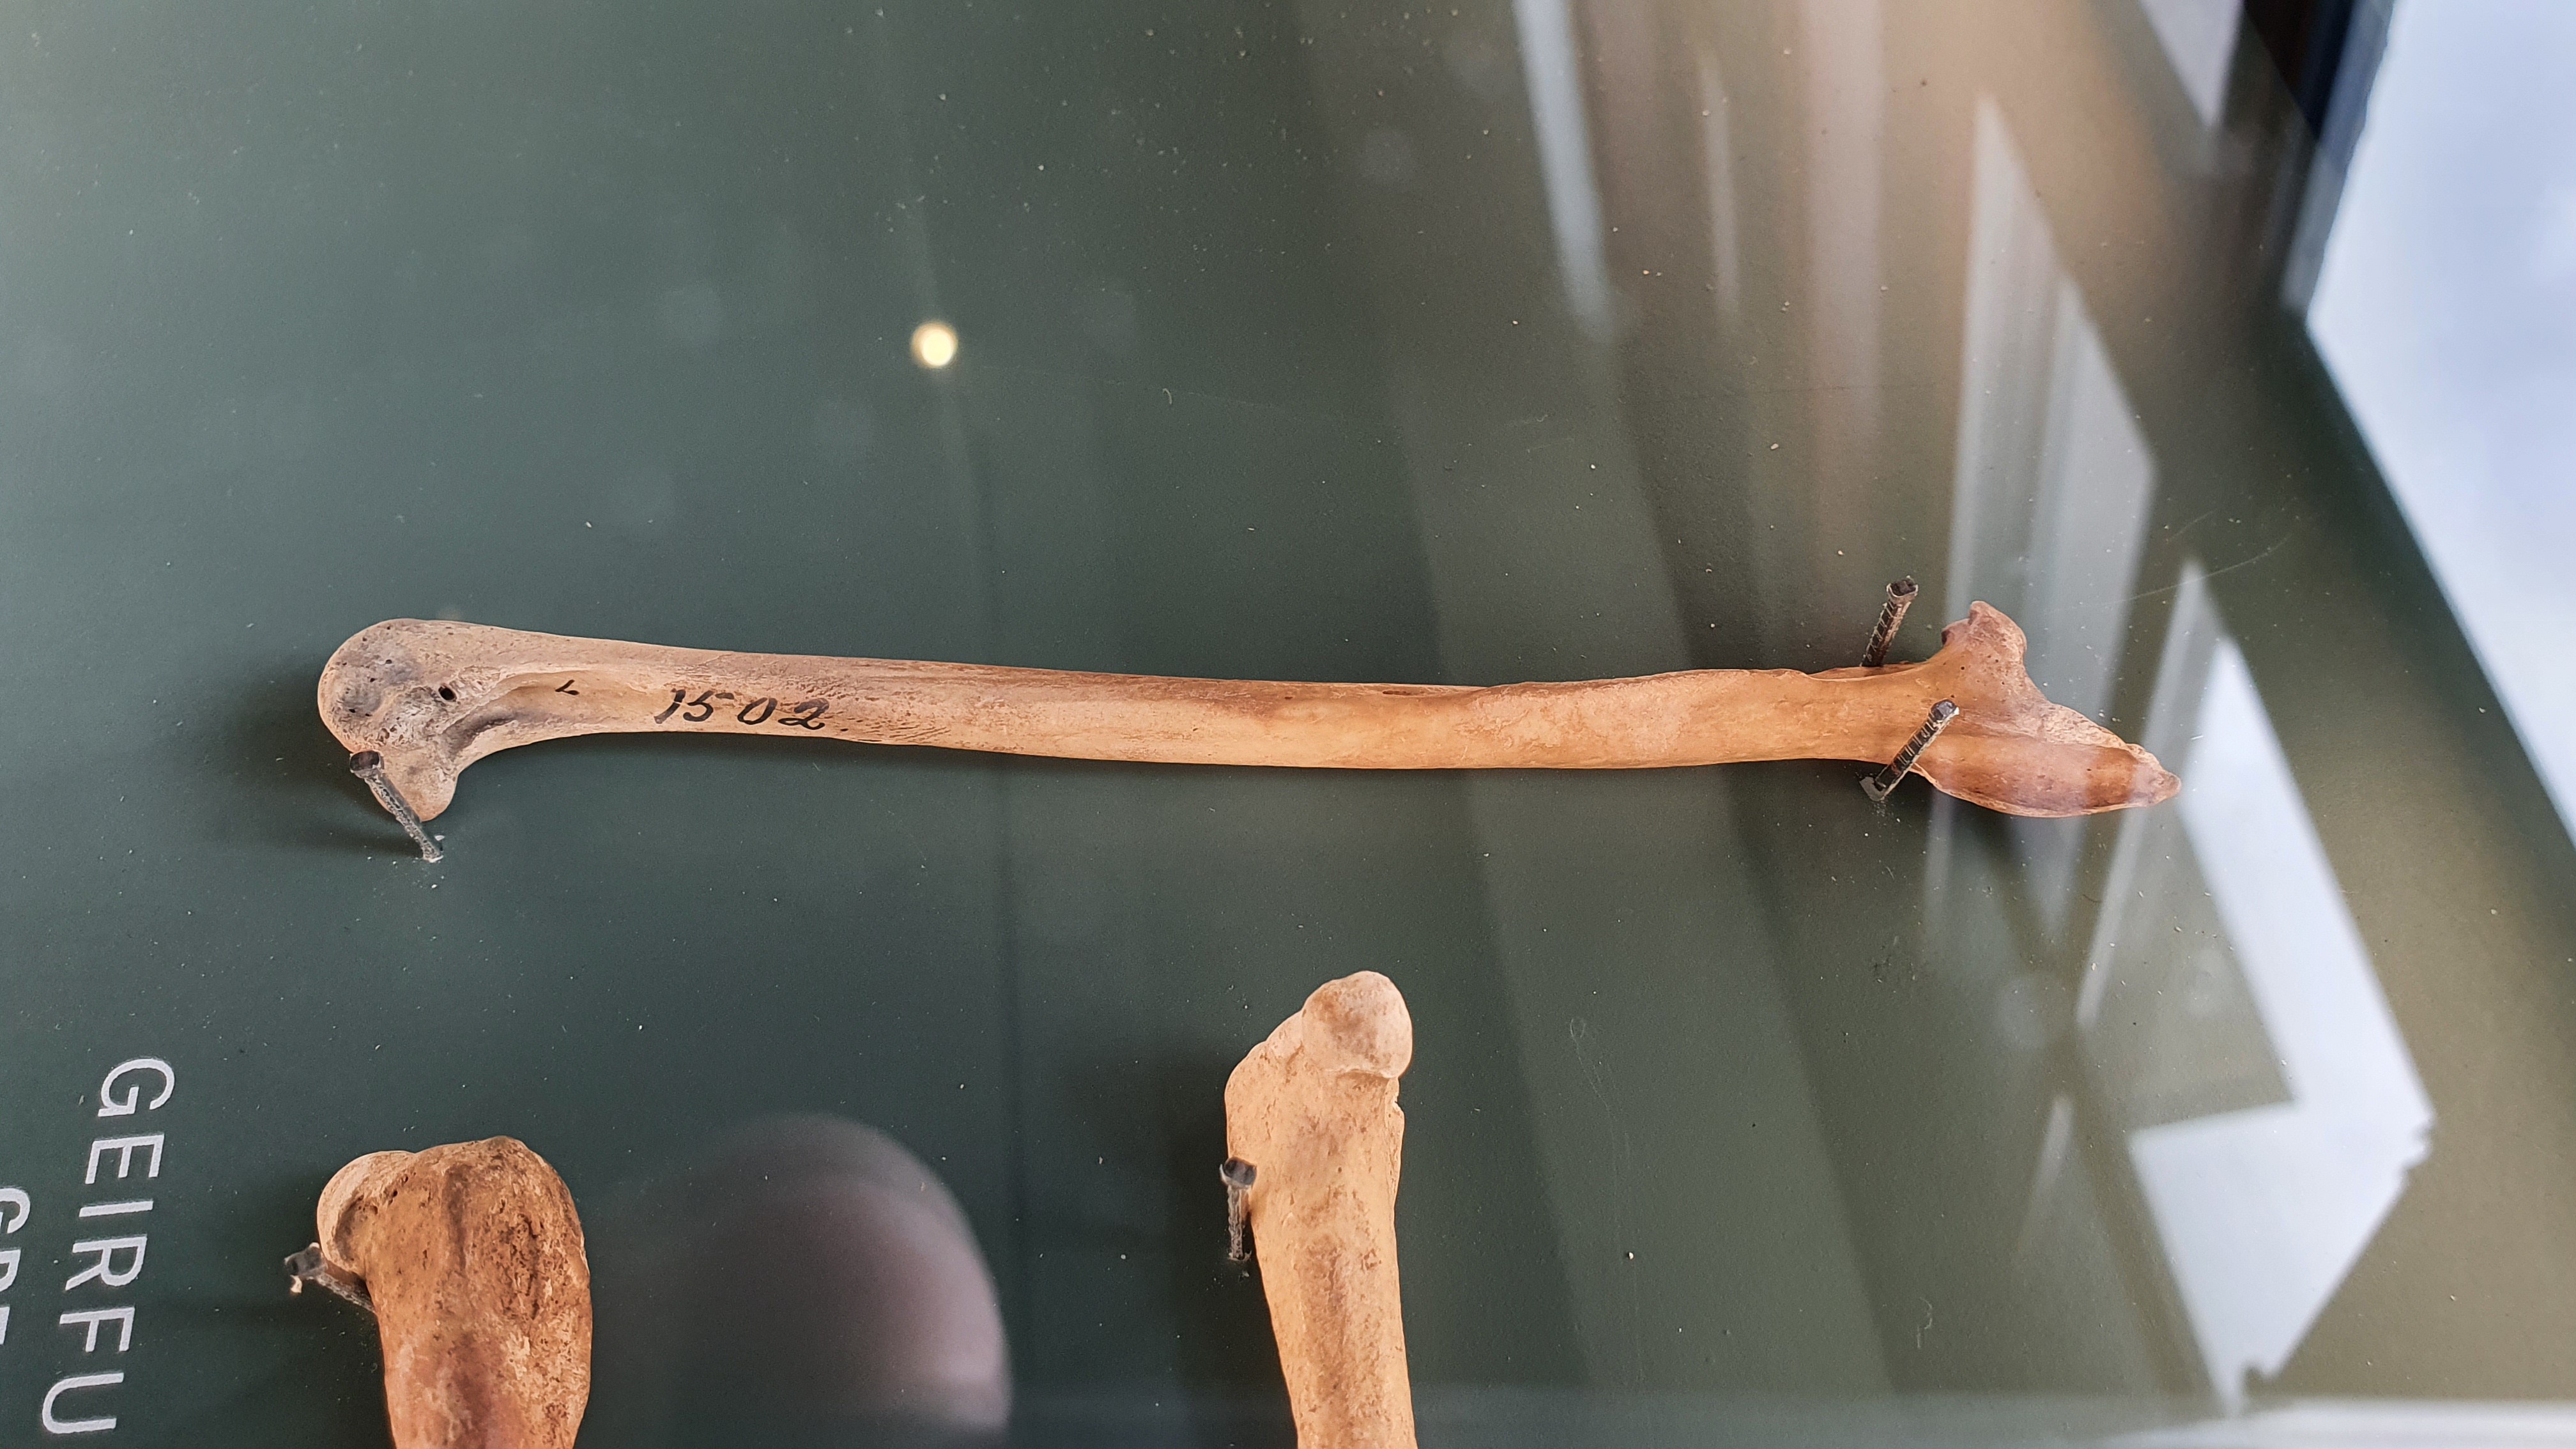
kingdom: Animalia
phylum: Chordata
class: Aves
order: Charadriiformes
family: Alcidae
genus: Pinguinus
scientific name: Pinguinus impennis
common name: Great auk
